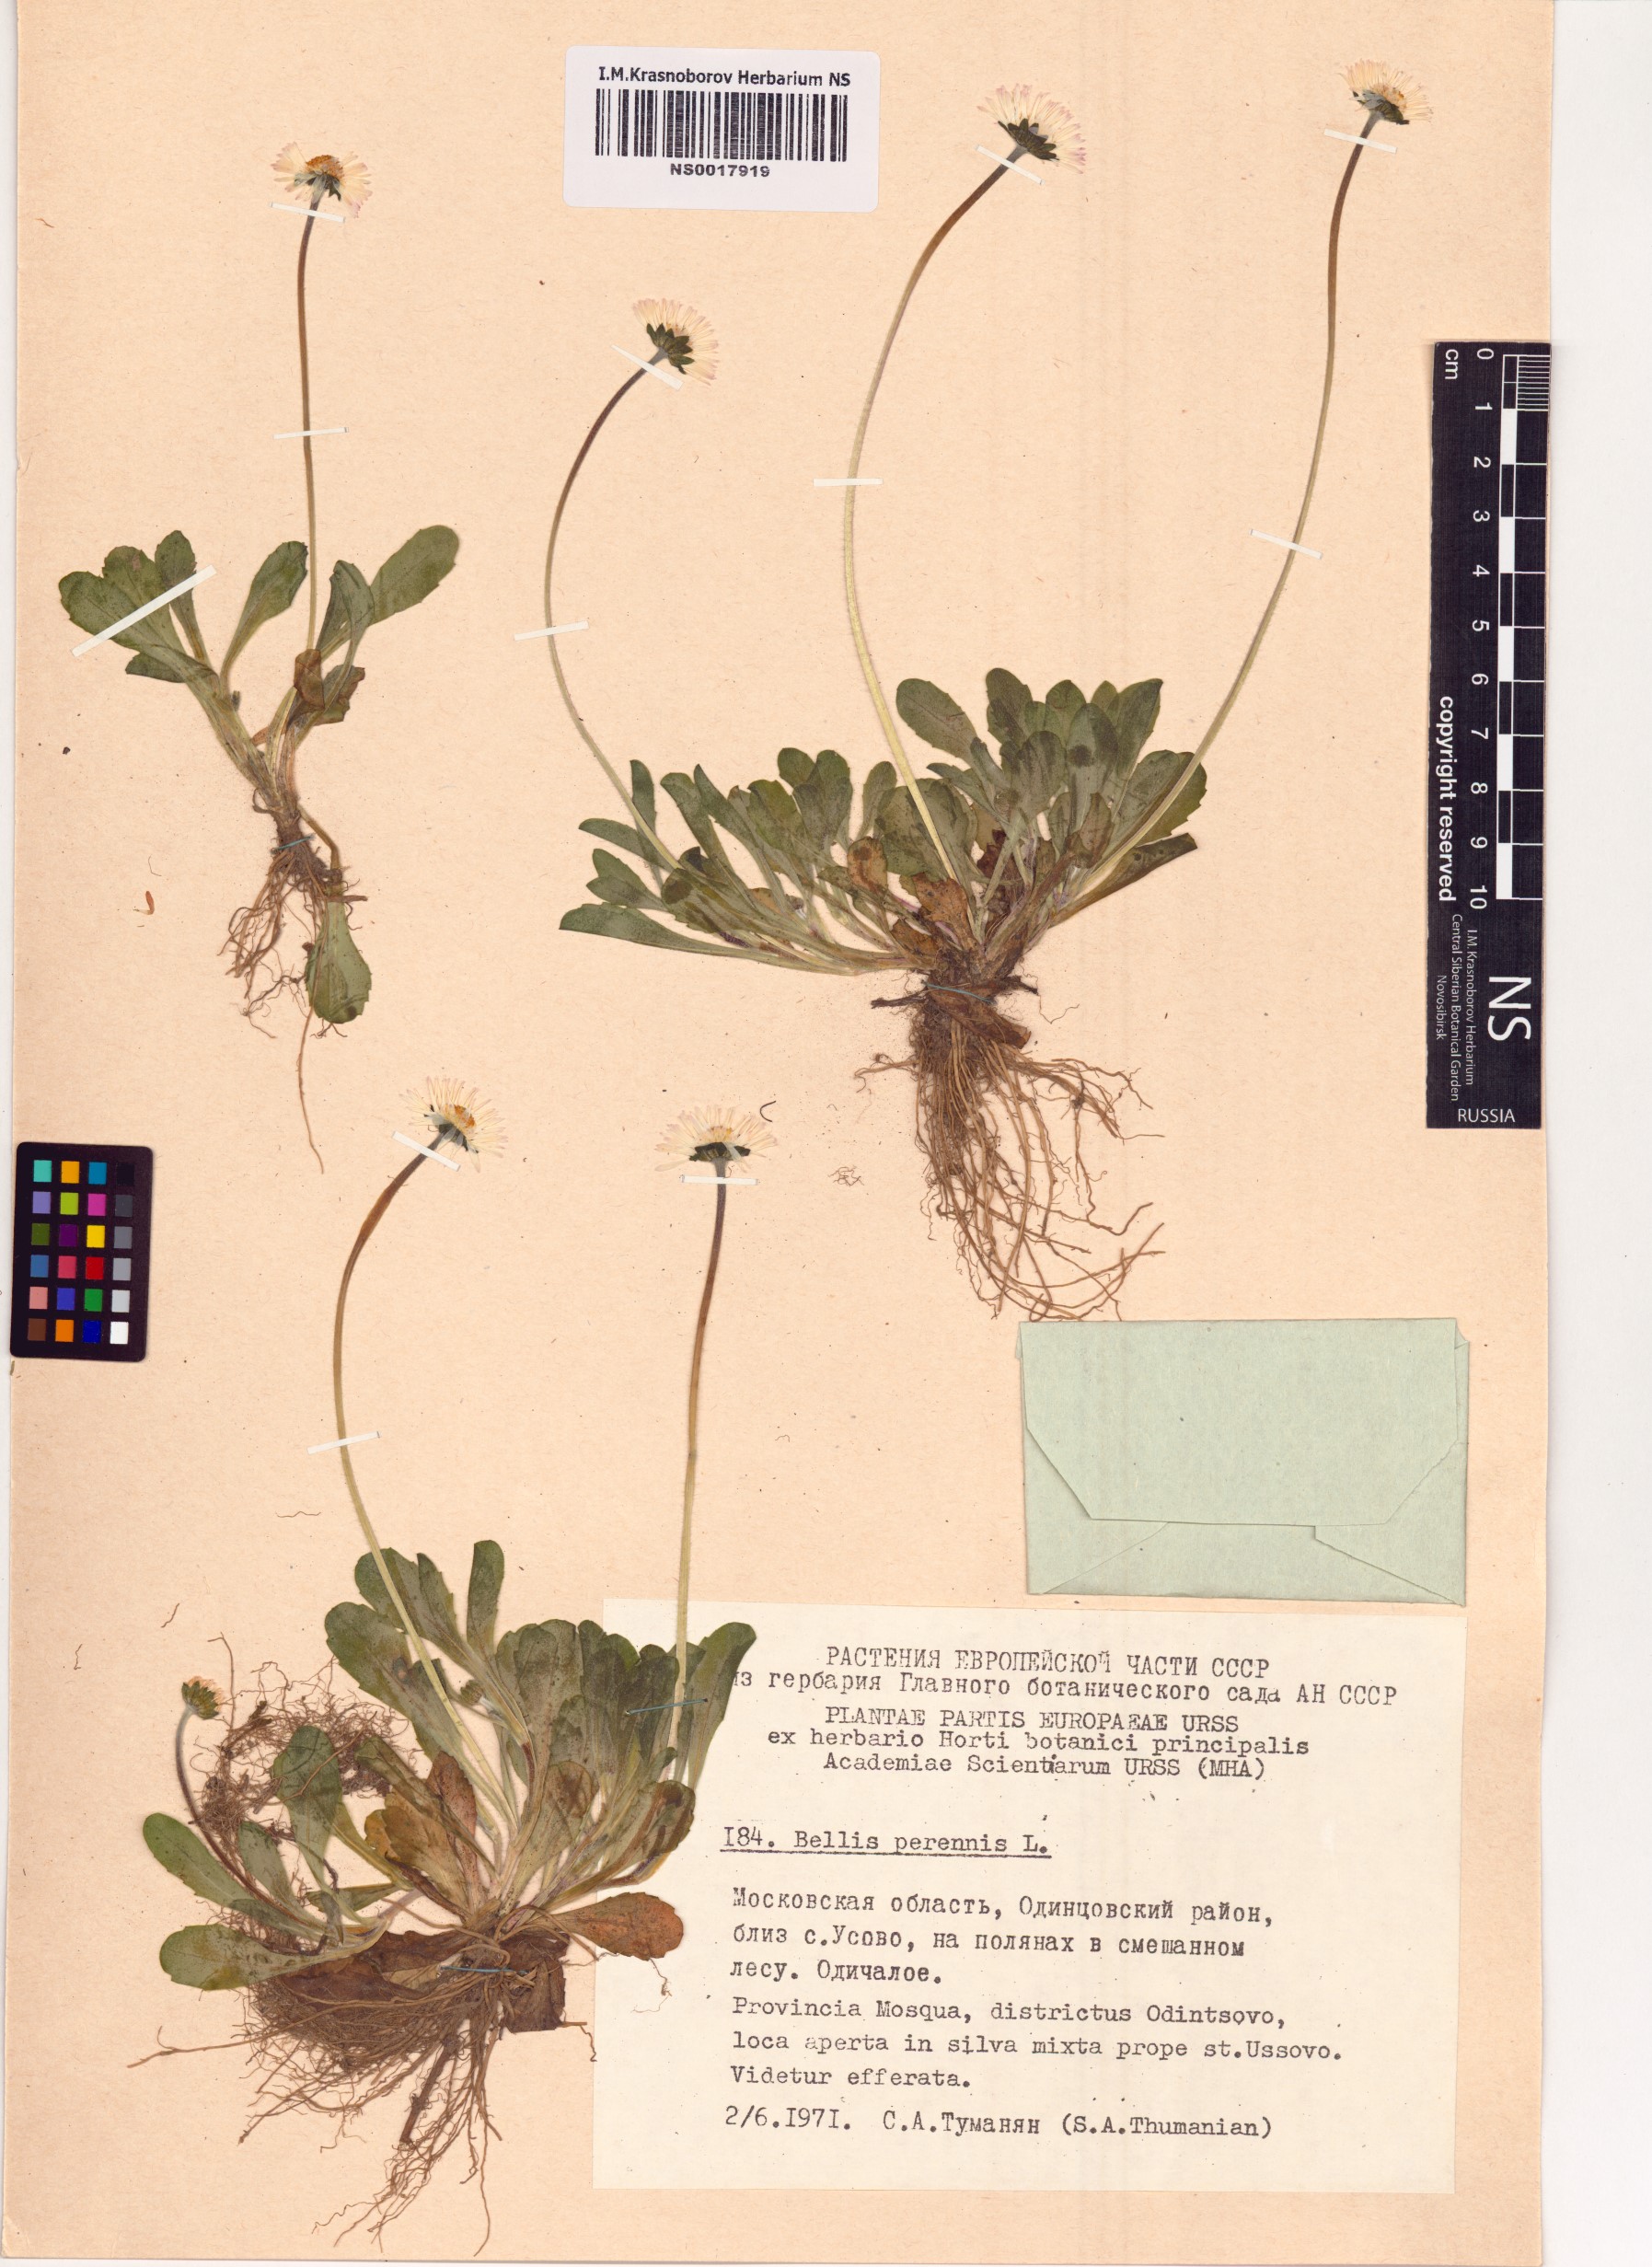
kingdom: Plantae
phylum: Tracheophyta
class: Magnoliopsida
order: Asterales
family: Asteraceae
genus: Bellis
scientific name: Bellis perennis
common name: Lawndaisy
